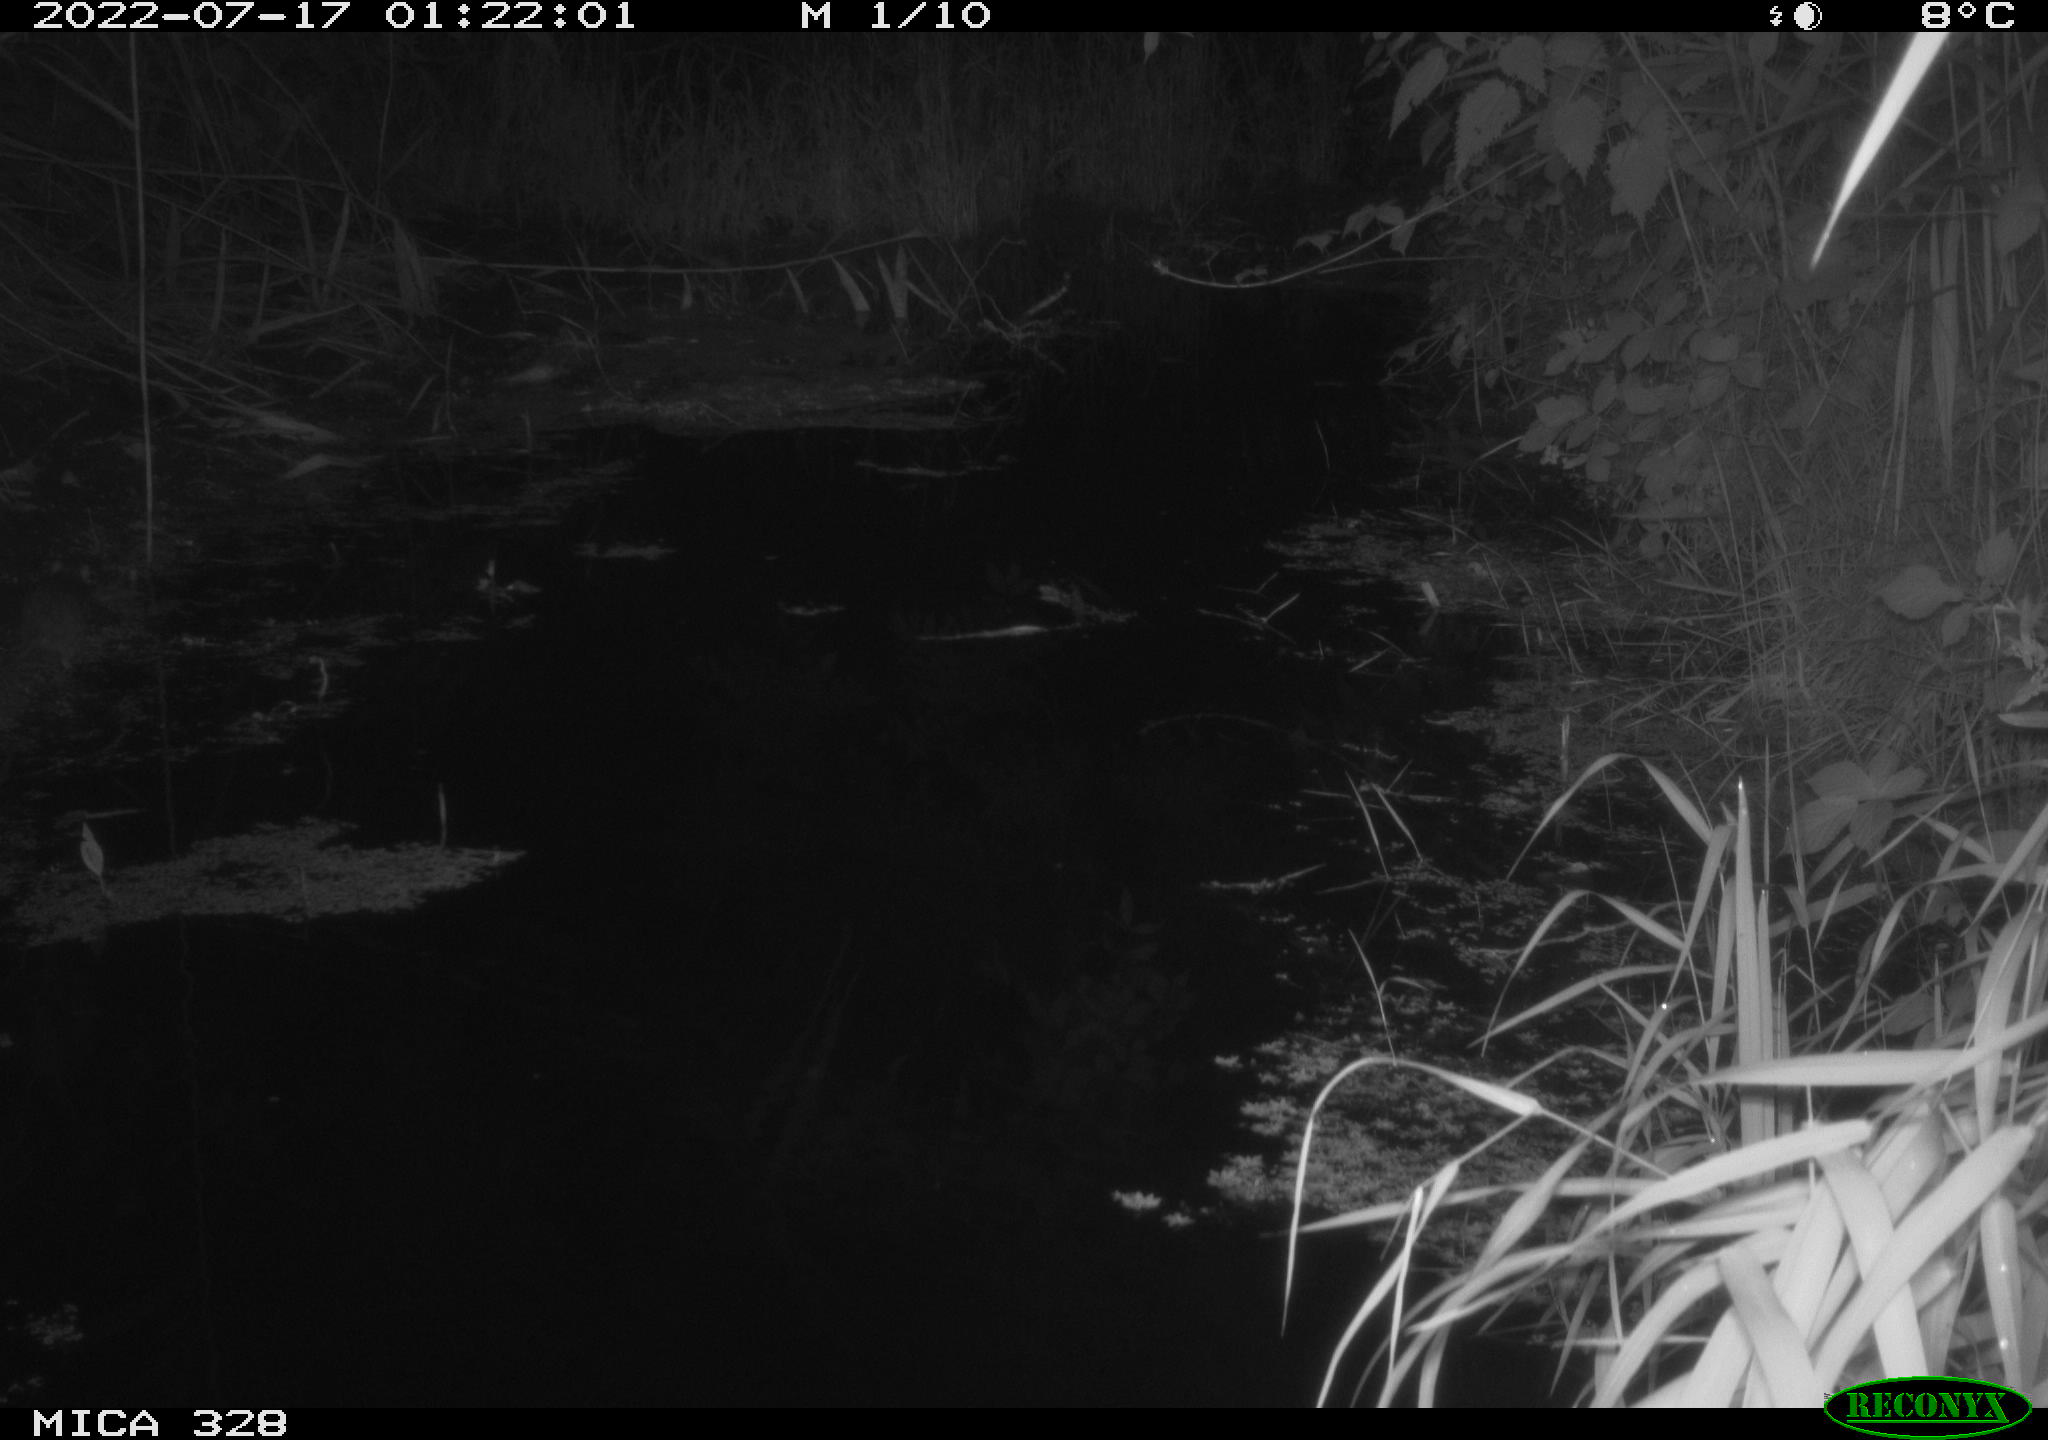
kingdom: Animalia
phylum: Chordata
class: Mammalia
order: Rodentia
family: Muridae
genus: Rattus
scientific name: Rattus norvegicus
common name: Brown rat
